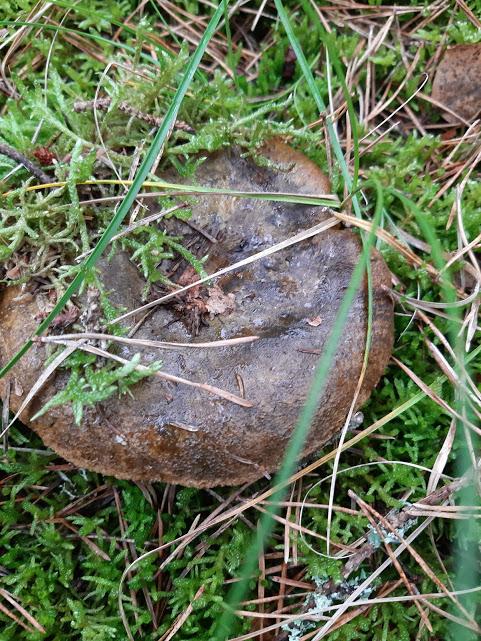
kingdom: Fungi
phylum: Basidiomycota
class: Agaricomycetes
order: Russulales
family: Russulaceae
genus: Lactarius
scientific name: Lactarius necator
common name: manddraber-mælkehat
